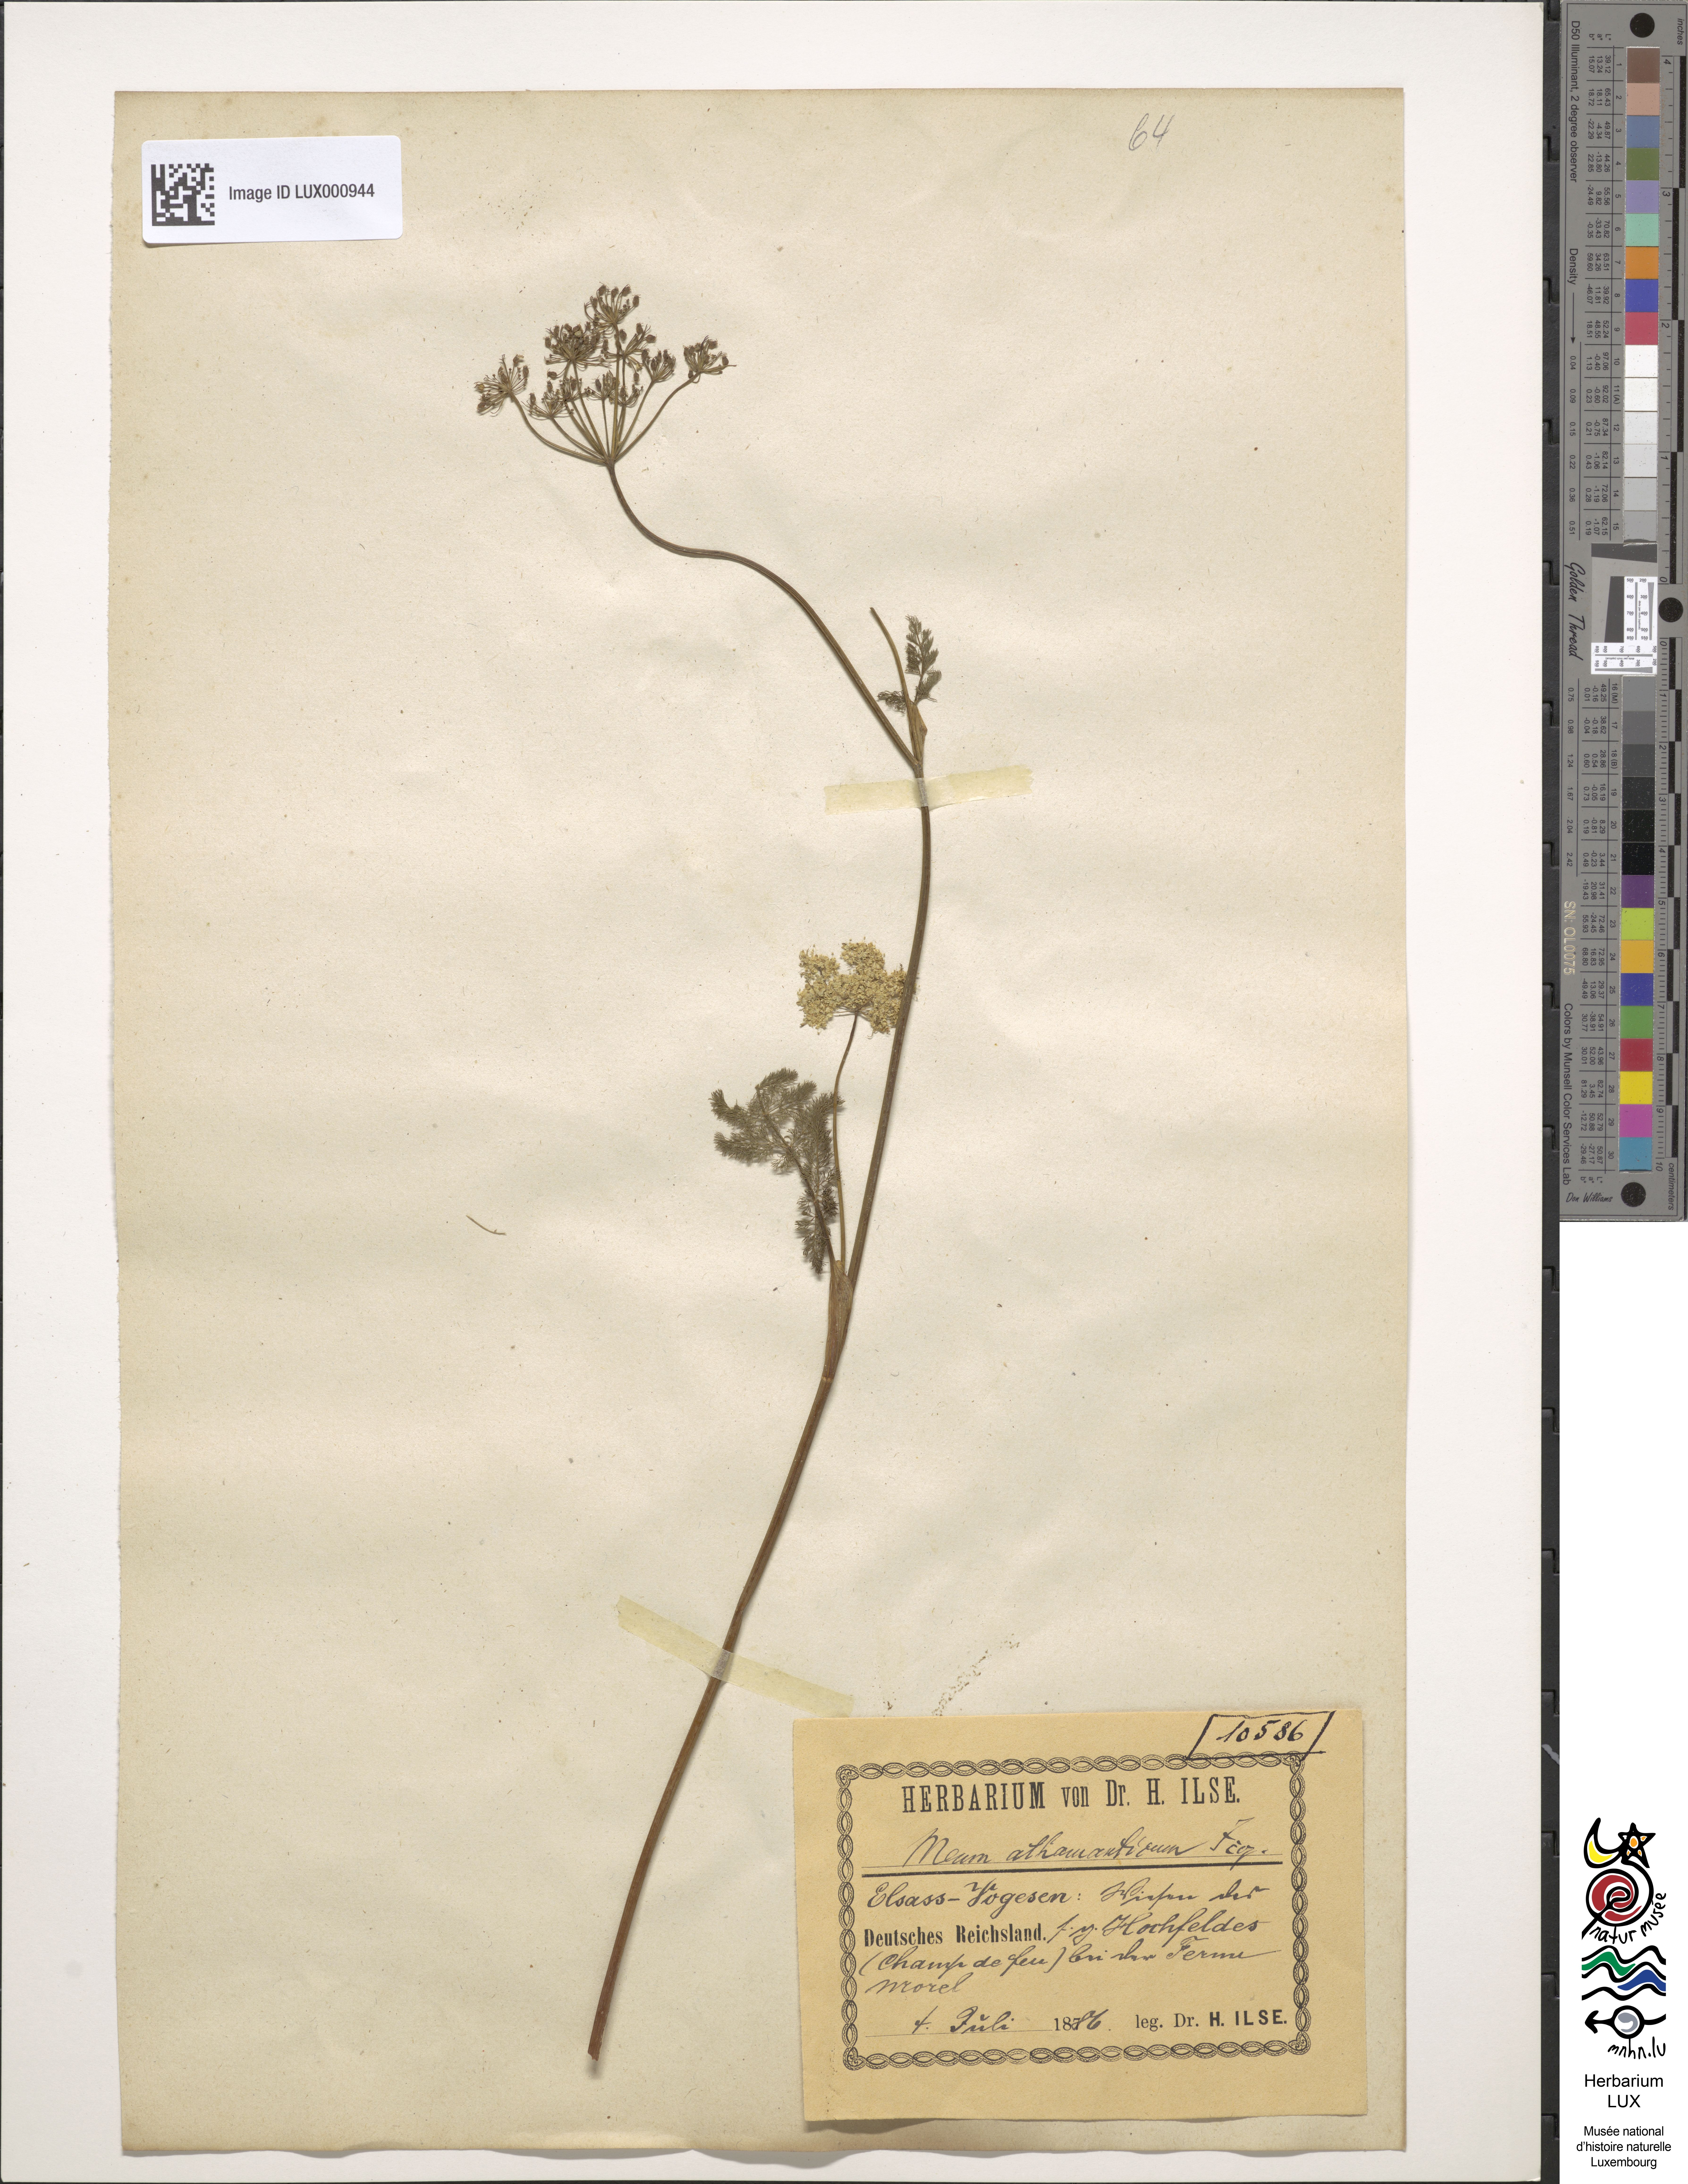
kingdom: Plantae
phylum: Tracheophyta
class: Magnoliopsida
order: Apiales
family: Apiaceae
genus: Meum
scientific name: Meum athamanticum
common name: Spignel
